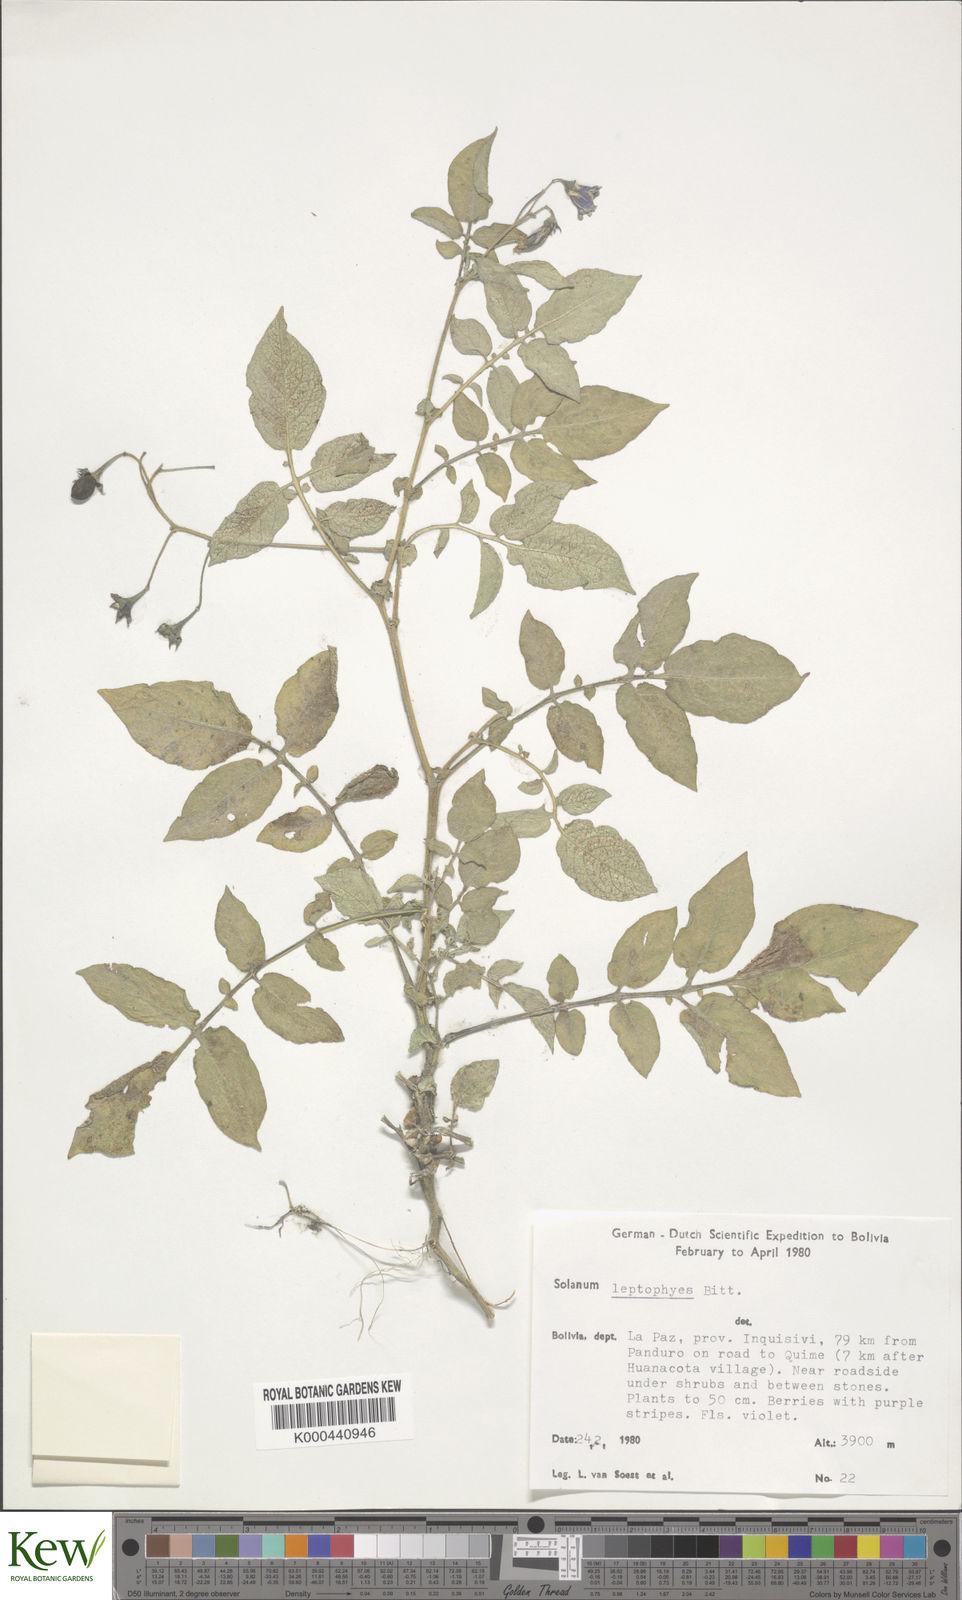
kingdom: Plantae
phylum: Tracheophyta
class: Magnoliopsida
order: Solanales
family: Solanaceae
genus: Solanum
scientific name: Solanum brevicaule
